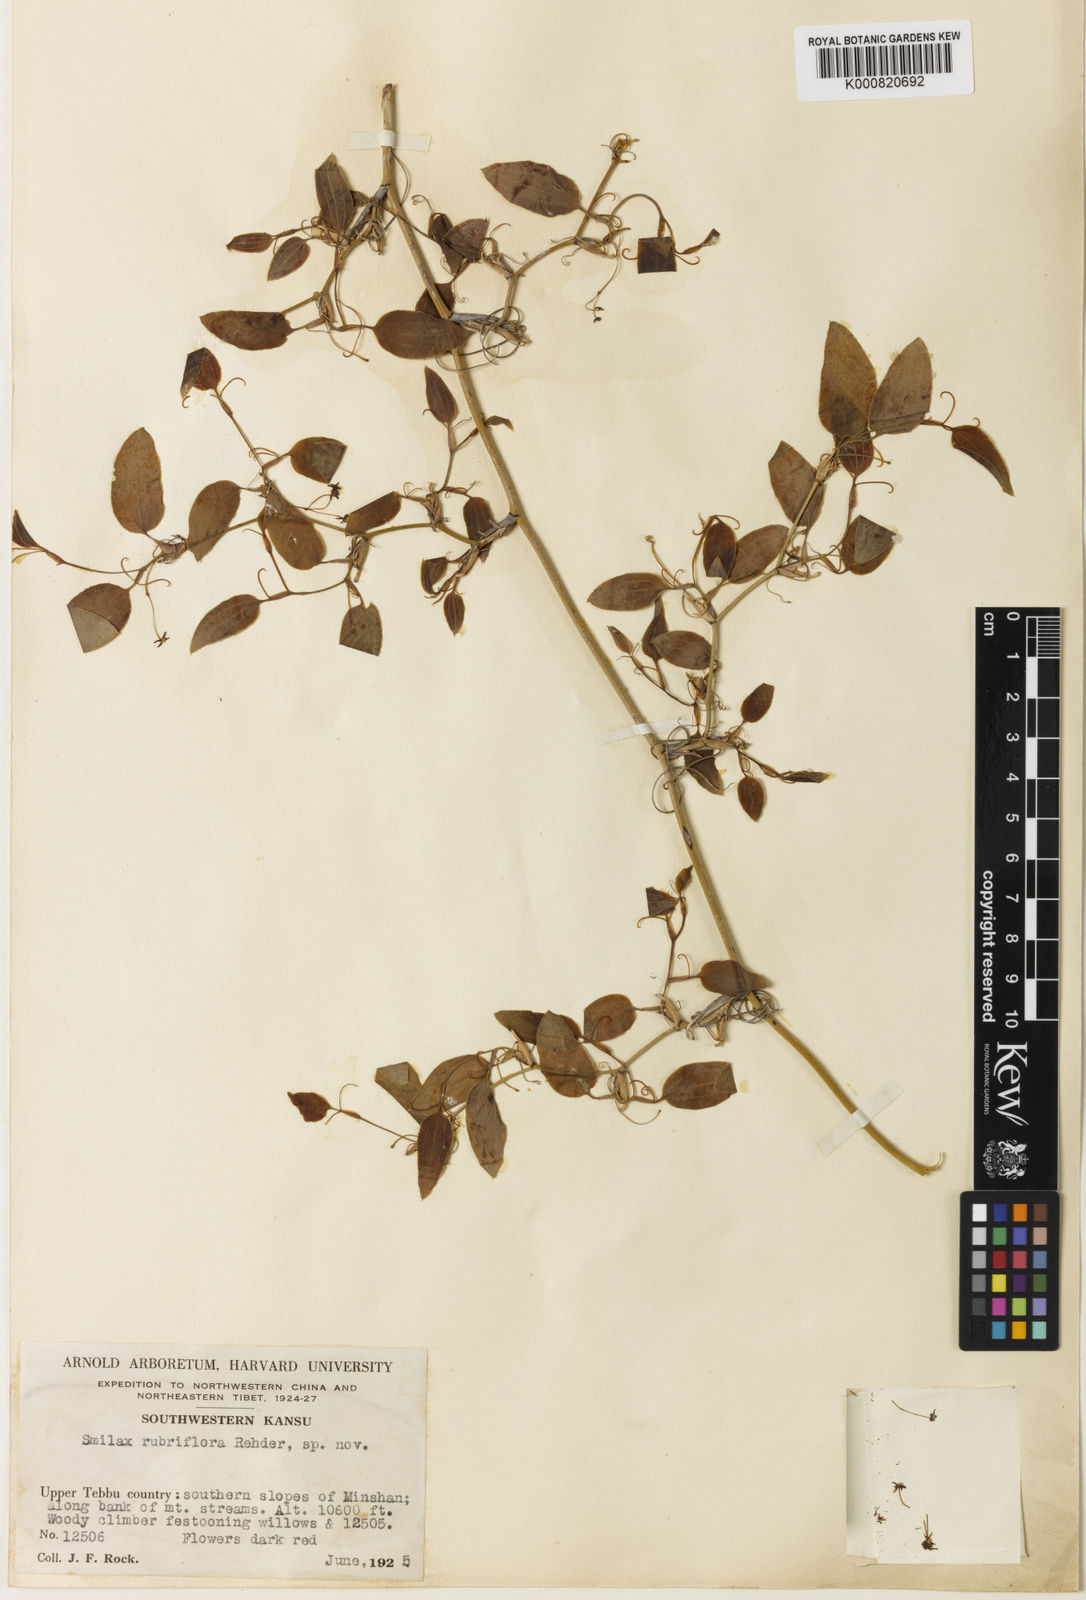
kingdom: Plantae
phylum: Tracheophyta
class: Liliopsida
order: Liliales
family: Smilacaceae
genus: Smilax
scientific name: Smilax menispermoidea
